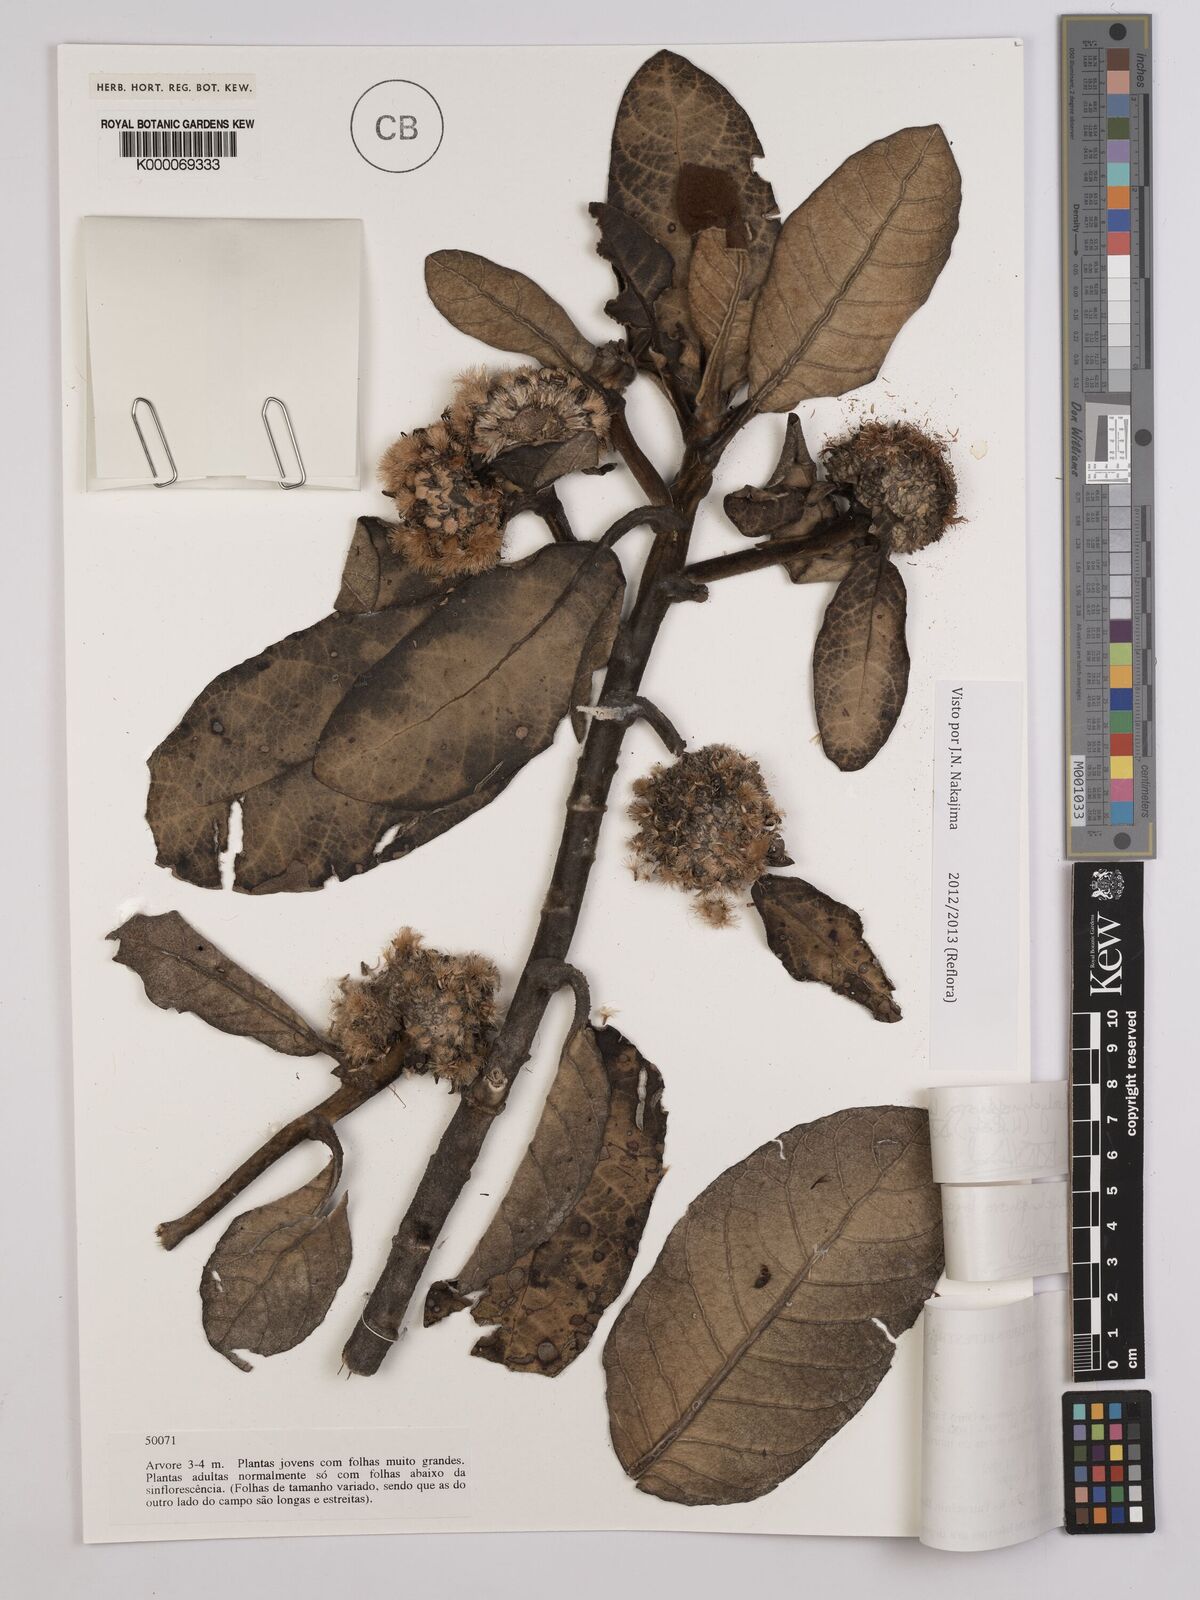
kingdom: Plantae
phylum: Tracheophyta
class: Magnoliopsida
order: Asterales
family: Asteraceae
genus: Paralychnophora
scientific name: Paralychnophora harleyi
